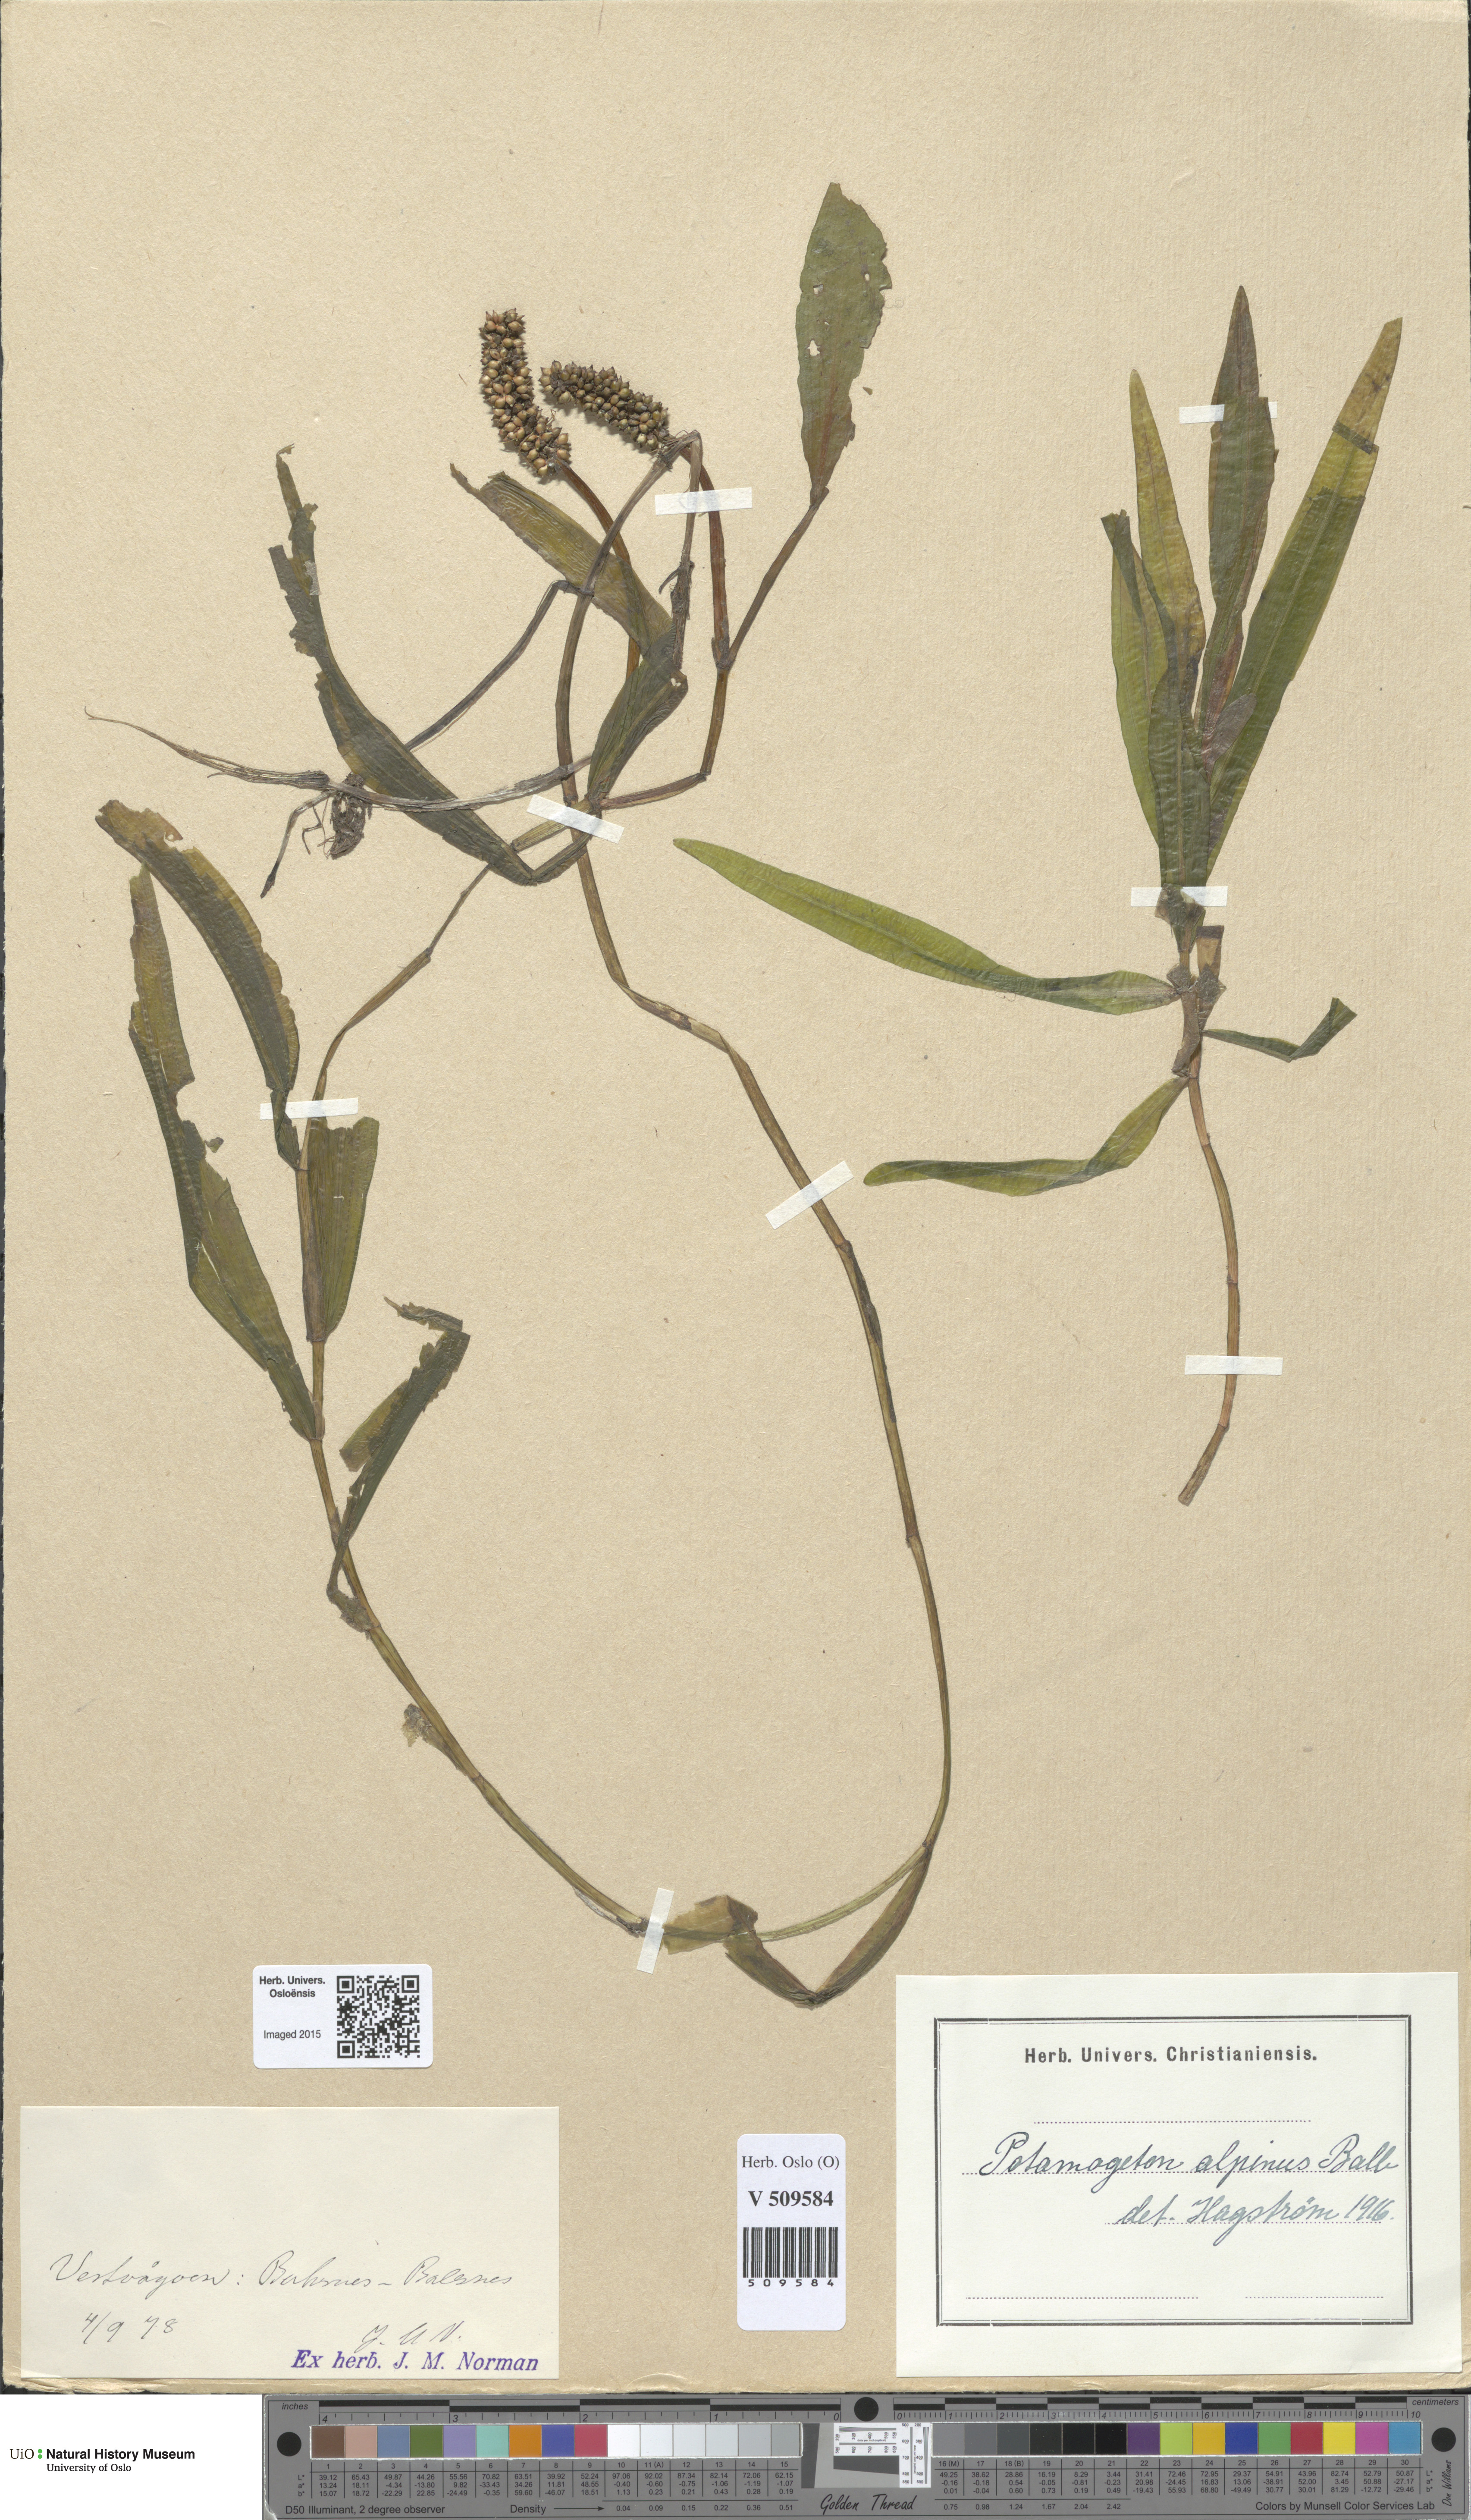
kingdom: Plantae
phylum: Tracheophyta
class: Liliopsida
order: Alismatales
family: Potamogetonaceae
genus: Potamogeton
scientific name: Potamogeton alpinus
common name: Red pondweed
